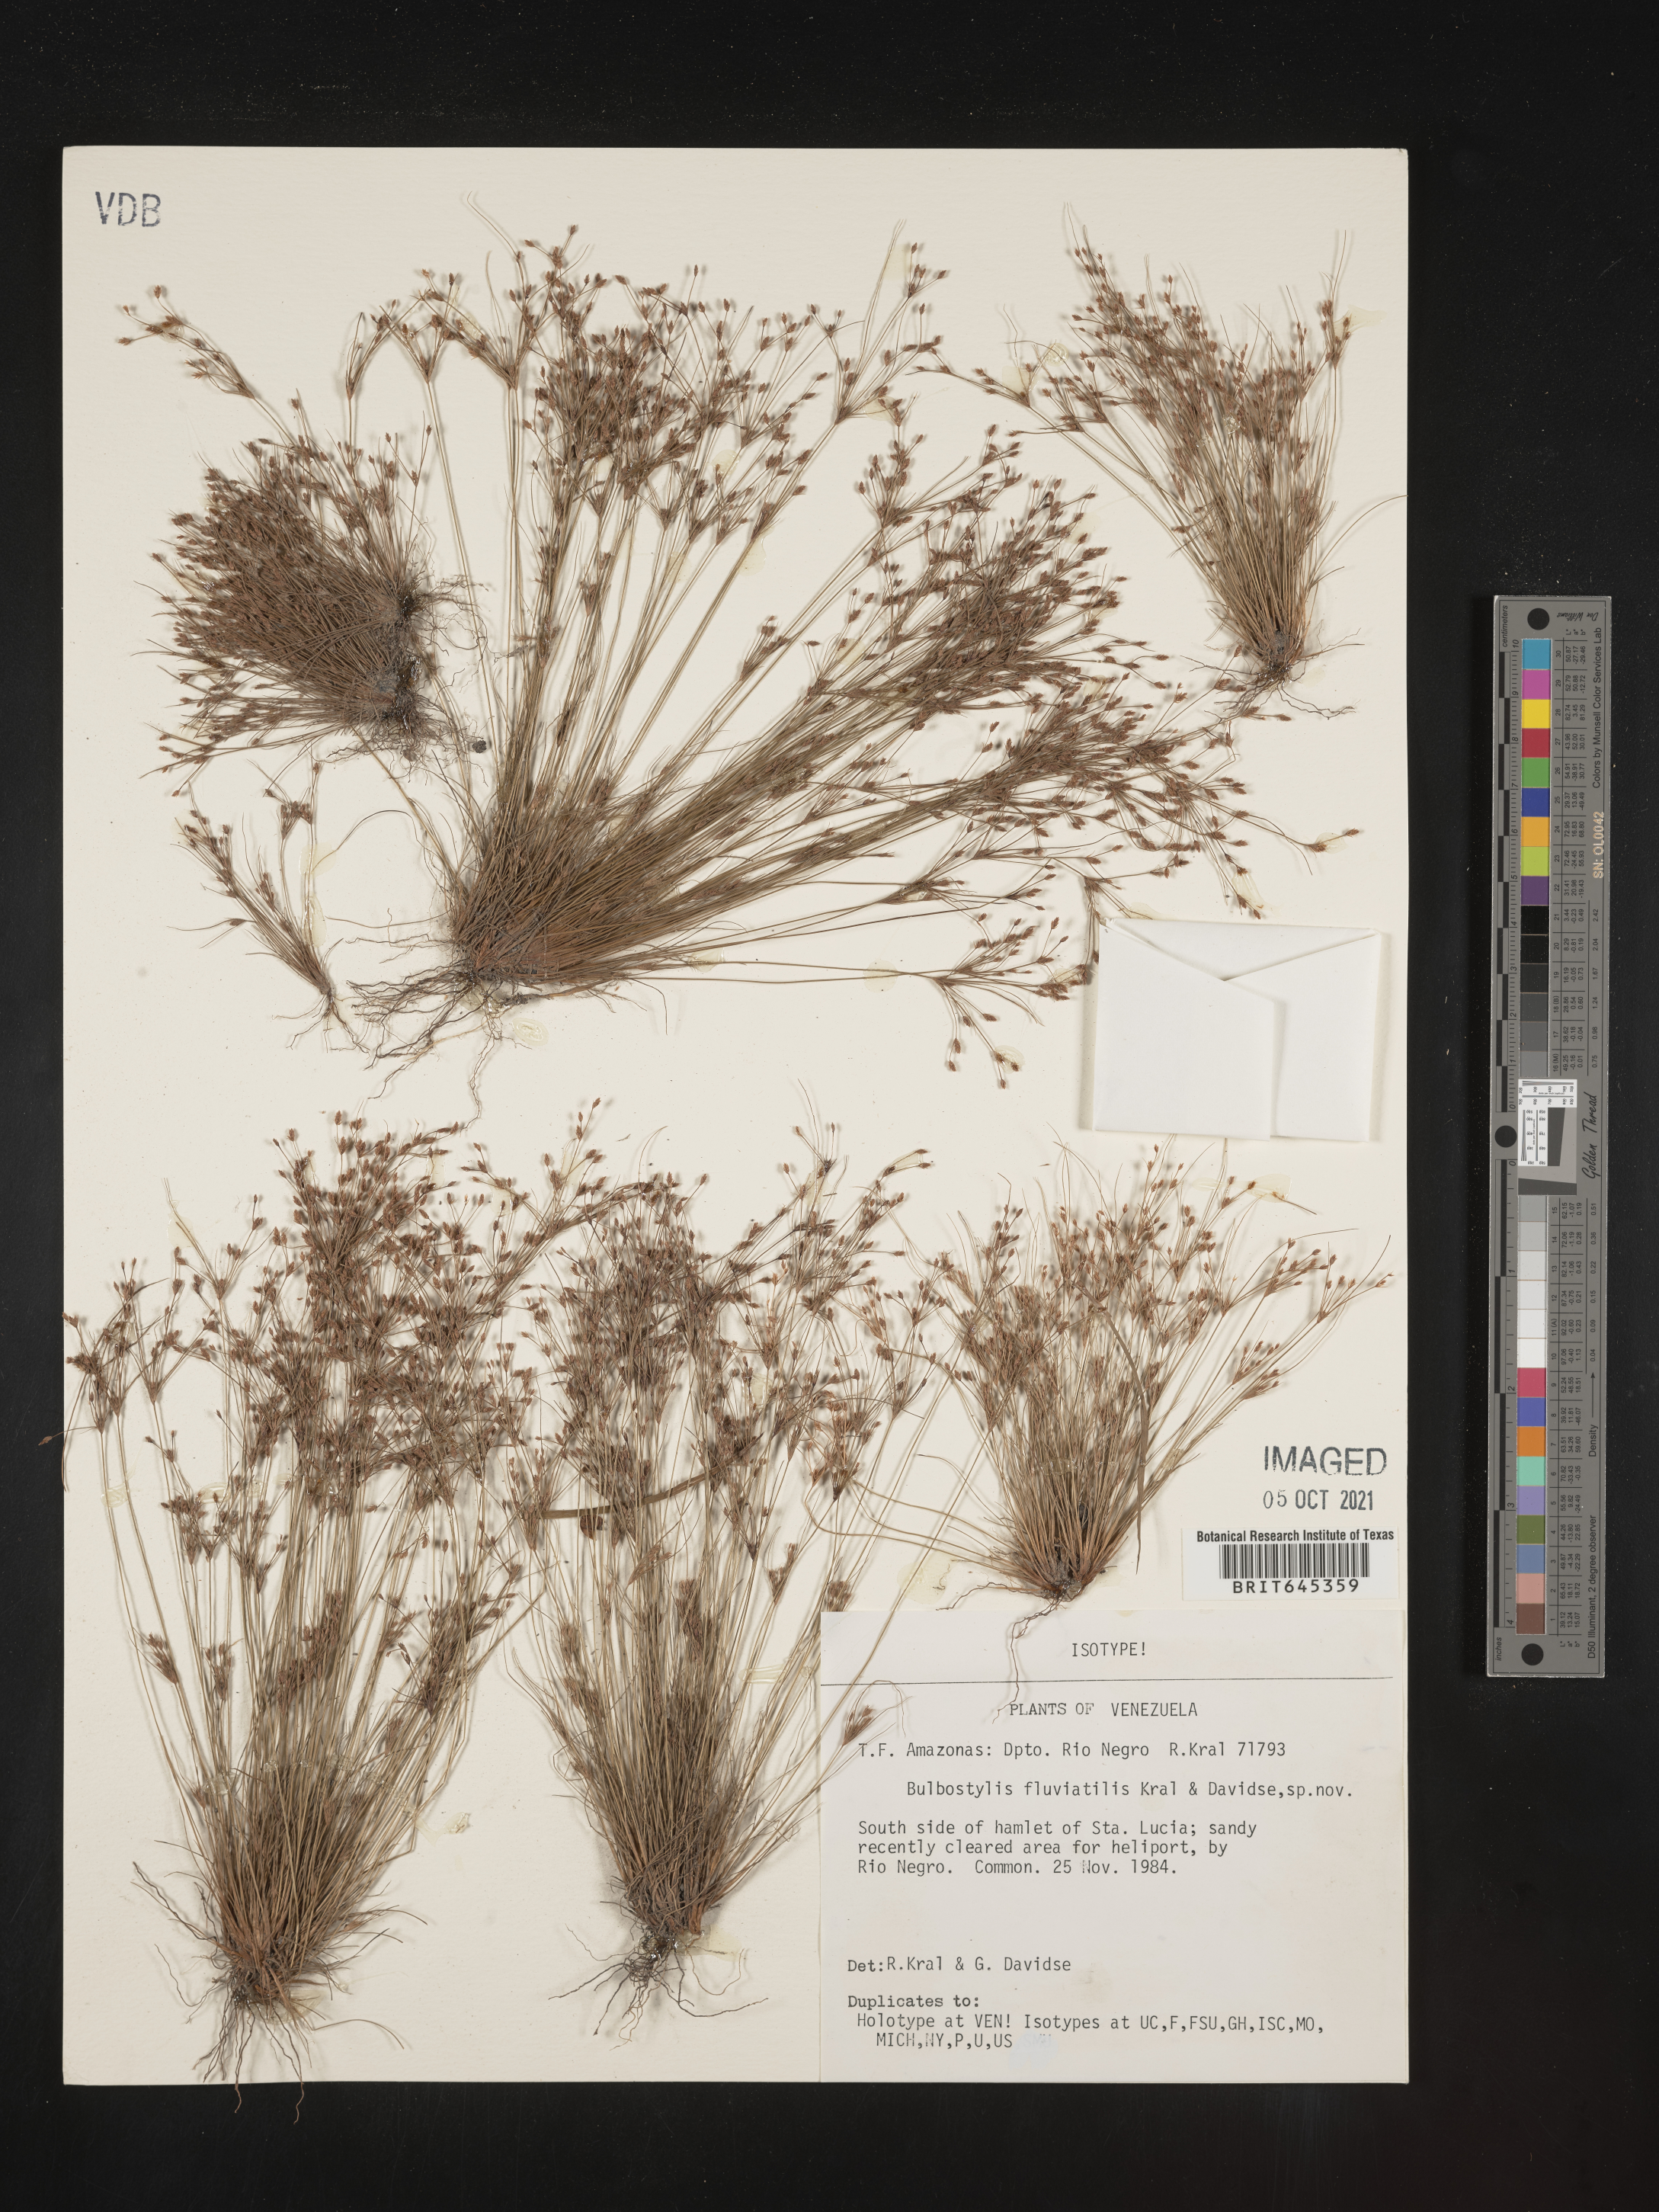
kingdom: Plantae
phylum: Tracheophyta
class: Liliopsida
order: Poales
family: Cyperaceae
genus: Bulbostylis
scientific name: Bulbostylis fluviatilis
